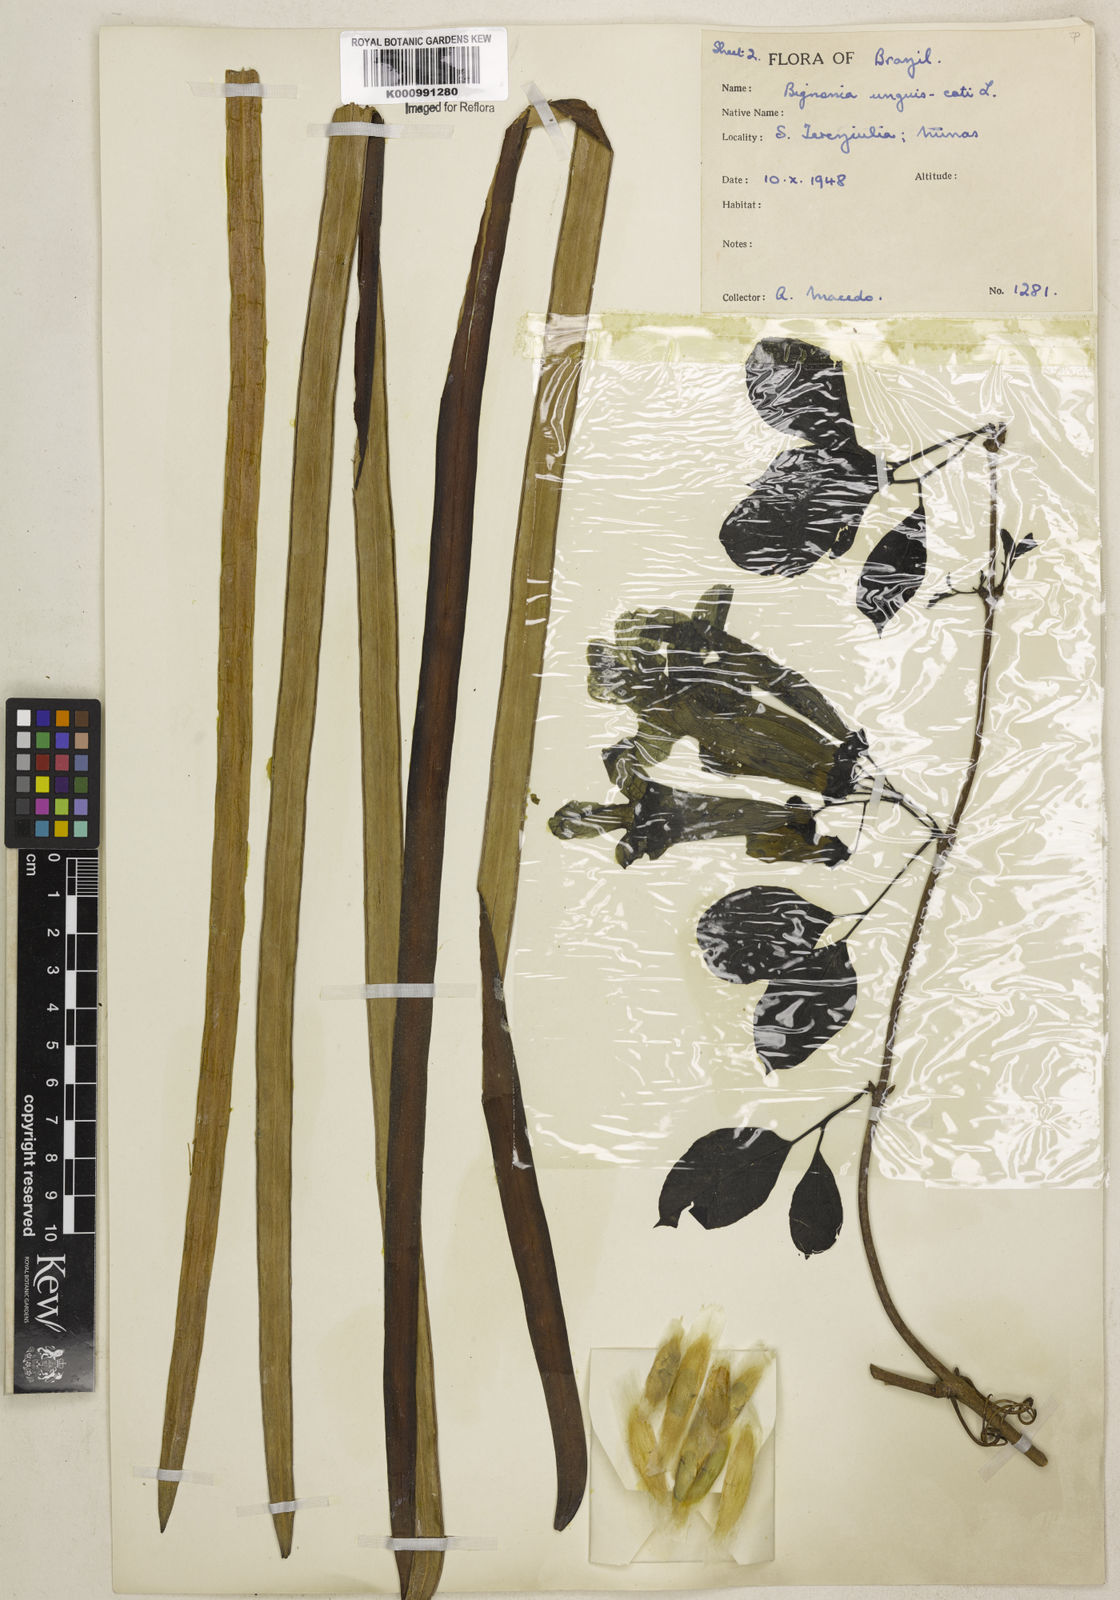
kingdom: Plantae
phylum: Tracheophyta
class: Magnoliopsida
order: Lamiales
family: Bignoniaceae
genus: Dolichandra
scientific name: Dolichandra unguis-cati
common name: Catclaw vine
